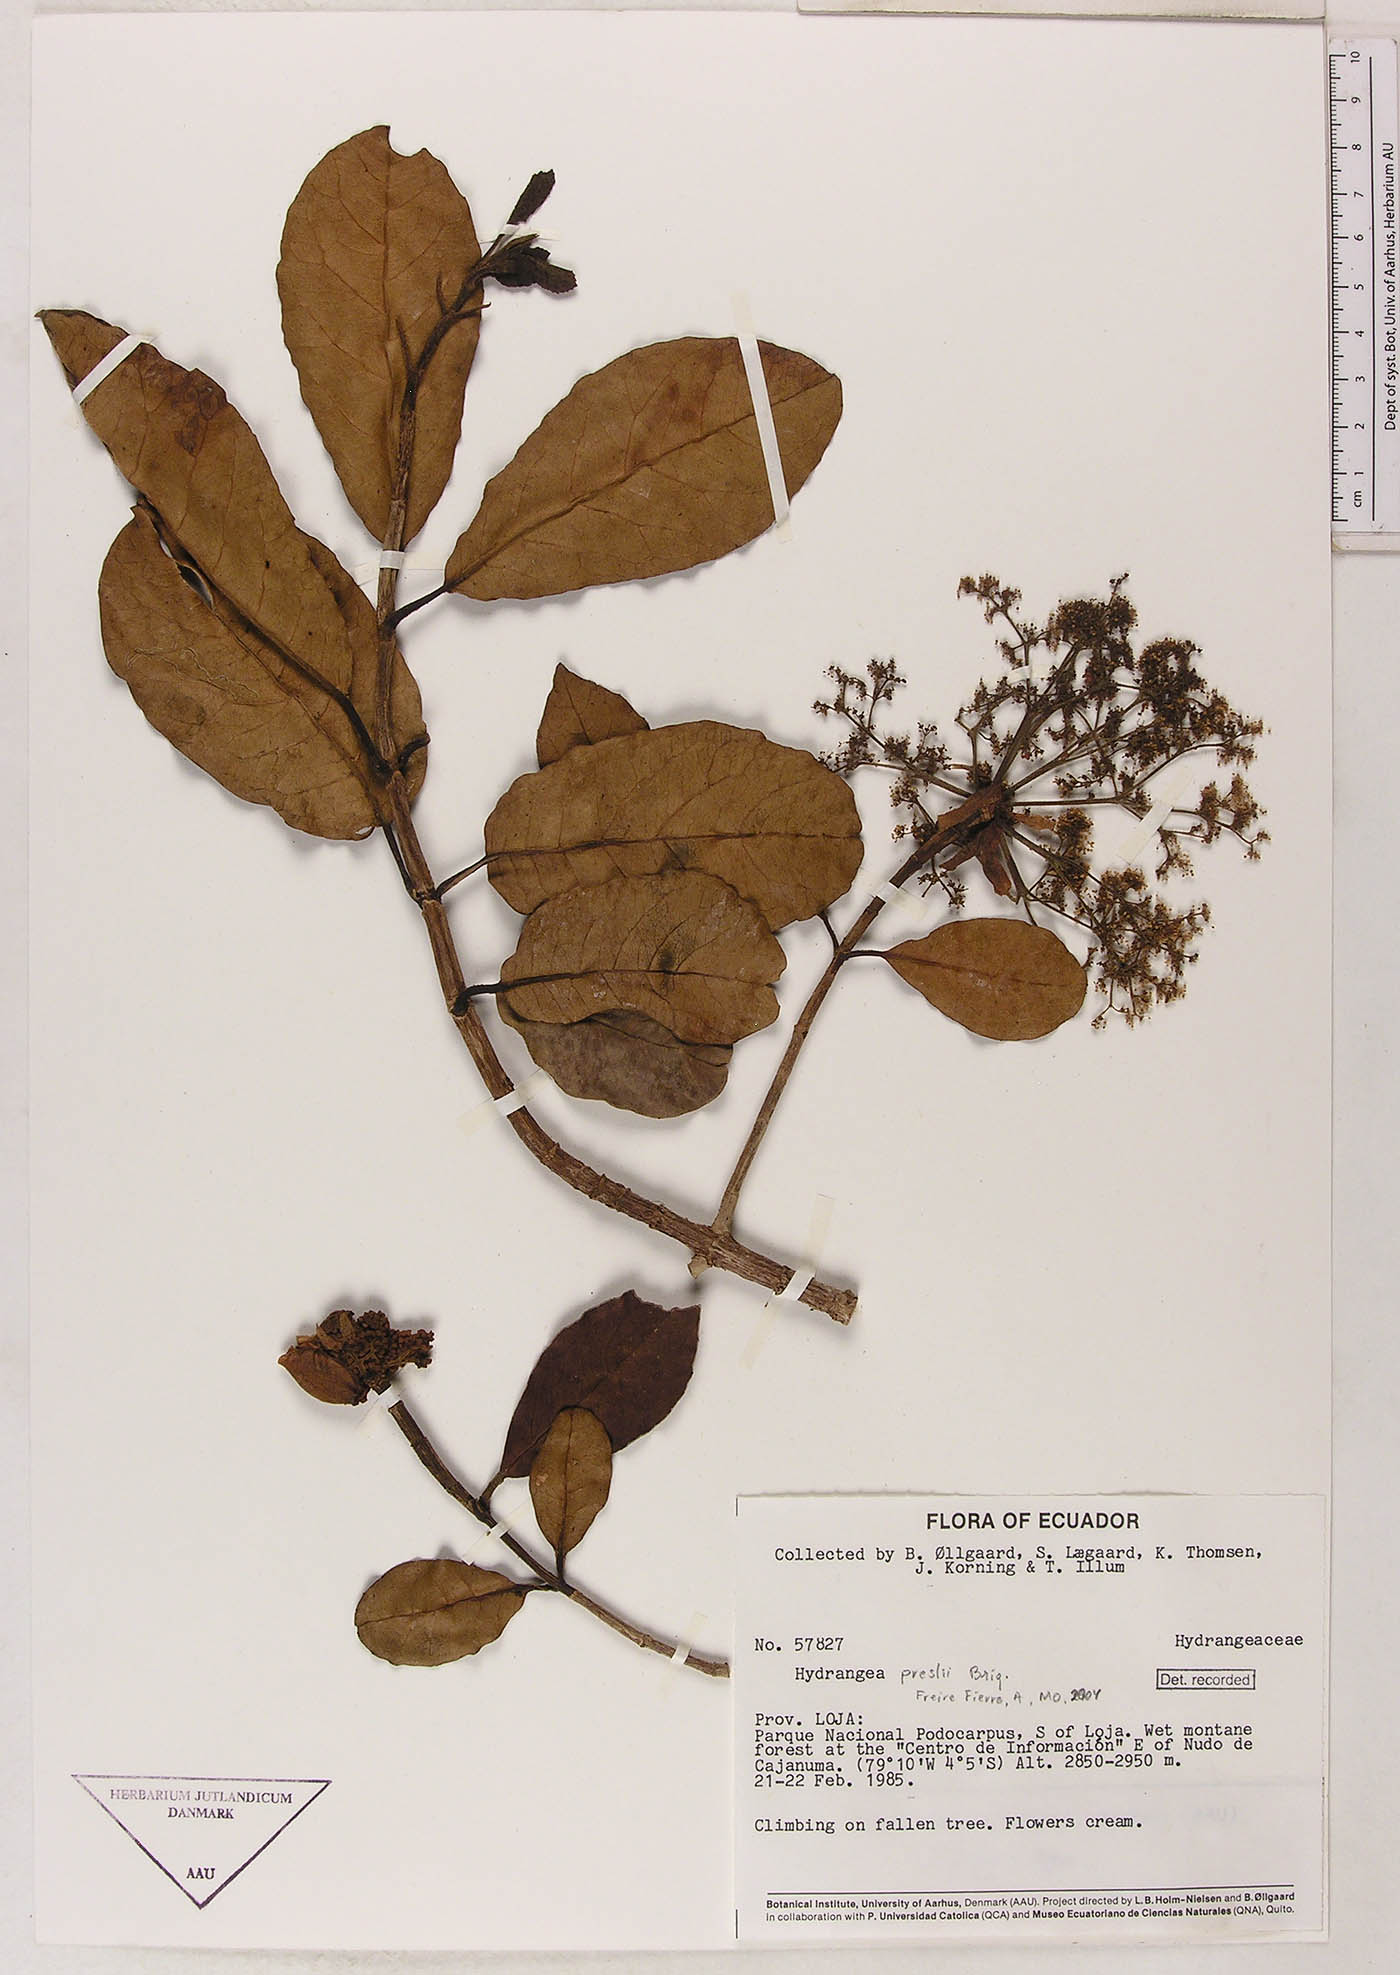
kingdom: Plantae
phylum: Tracheophyta
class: Magnoliopsida
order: Cornales
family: Hydrangeaceae
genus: Hydrangea
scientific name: Hydrangea diplostemona
